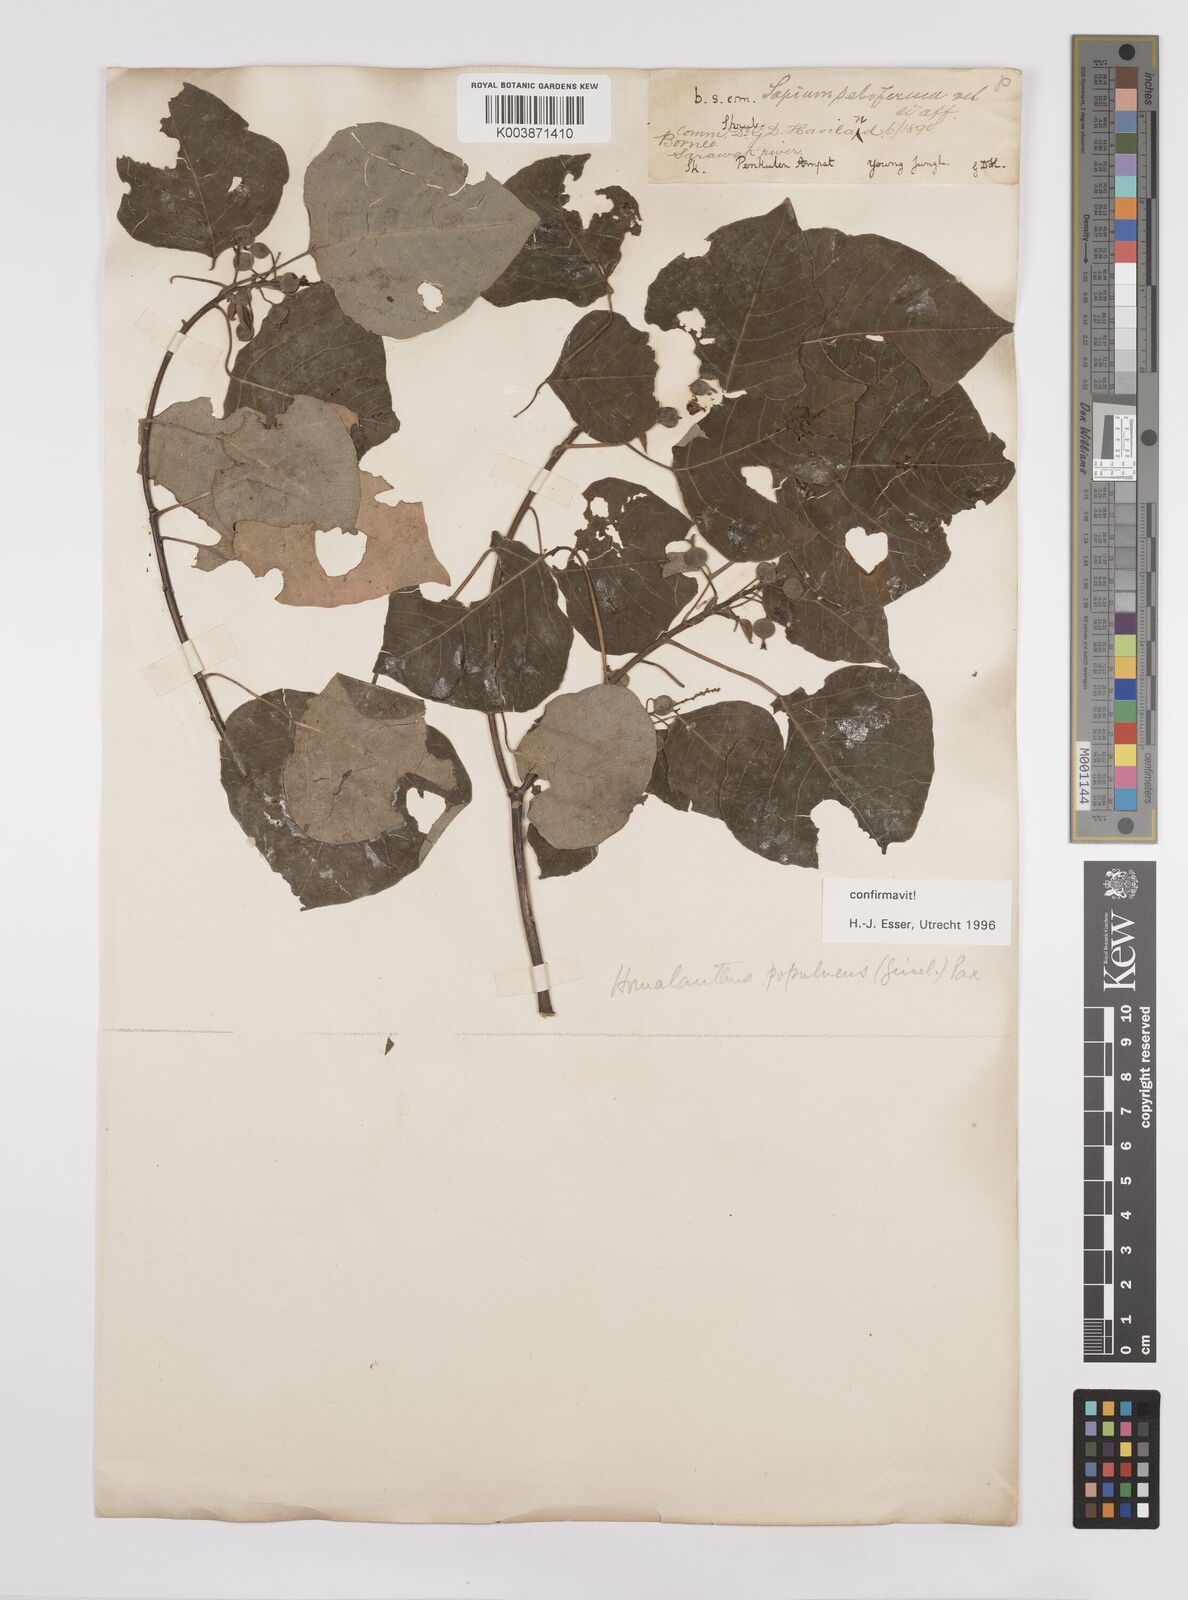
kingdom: Plantae
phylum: Tracheophyta
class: Magnoliopsida
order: Malpighiales
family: Euphorbiaceae
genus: Homalanthus
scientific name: Homalanthus populneus
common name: Spurge
